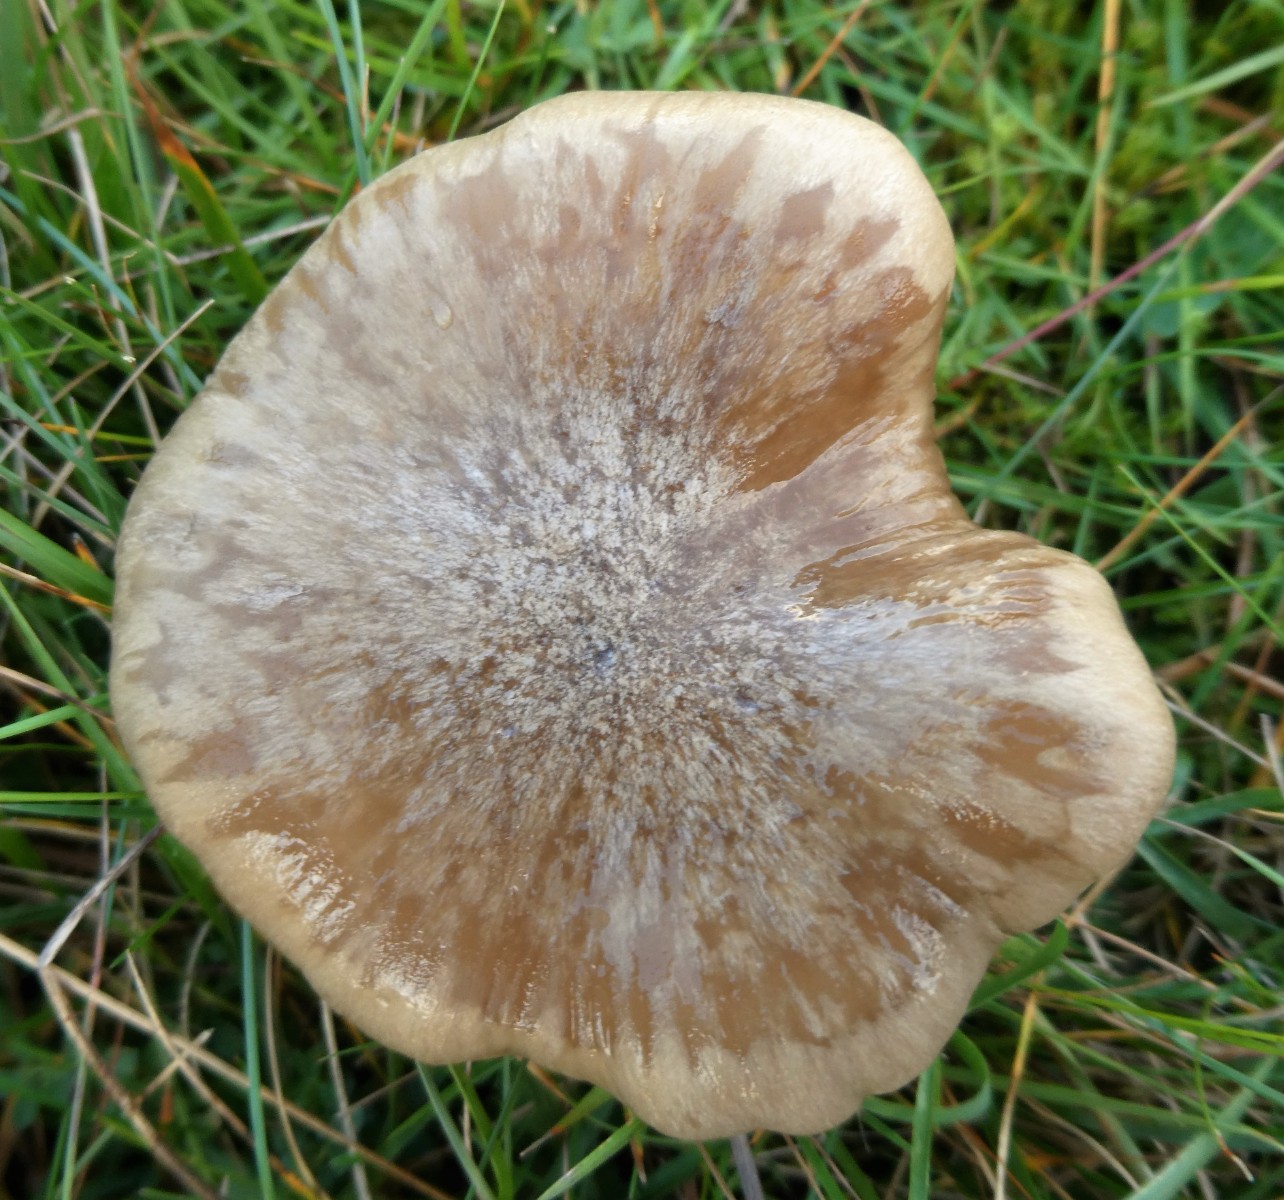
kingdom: Fungi
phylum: Basidiomycota
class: Agaricomycetes
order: Agaricales
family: Entolomataceae
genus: Entoloma
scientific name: Entoloma prunuloides
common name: mel-rødblad
